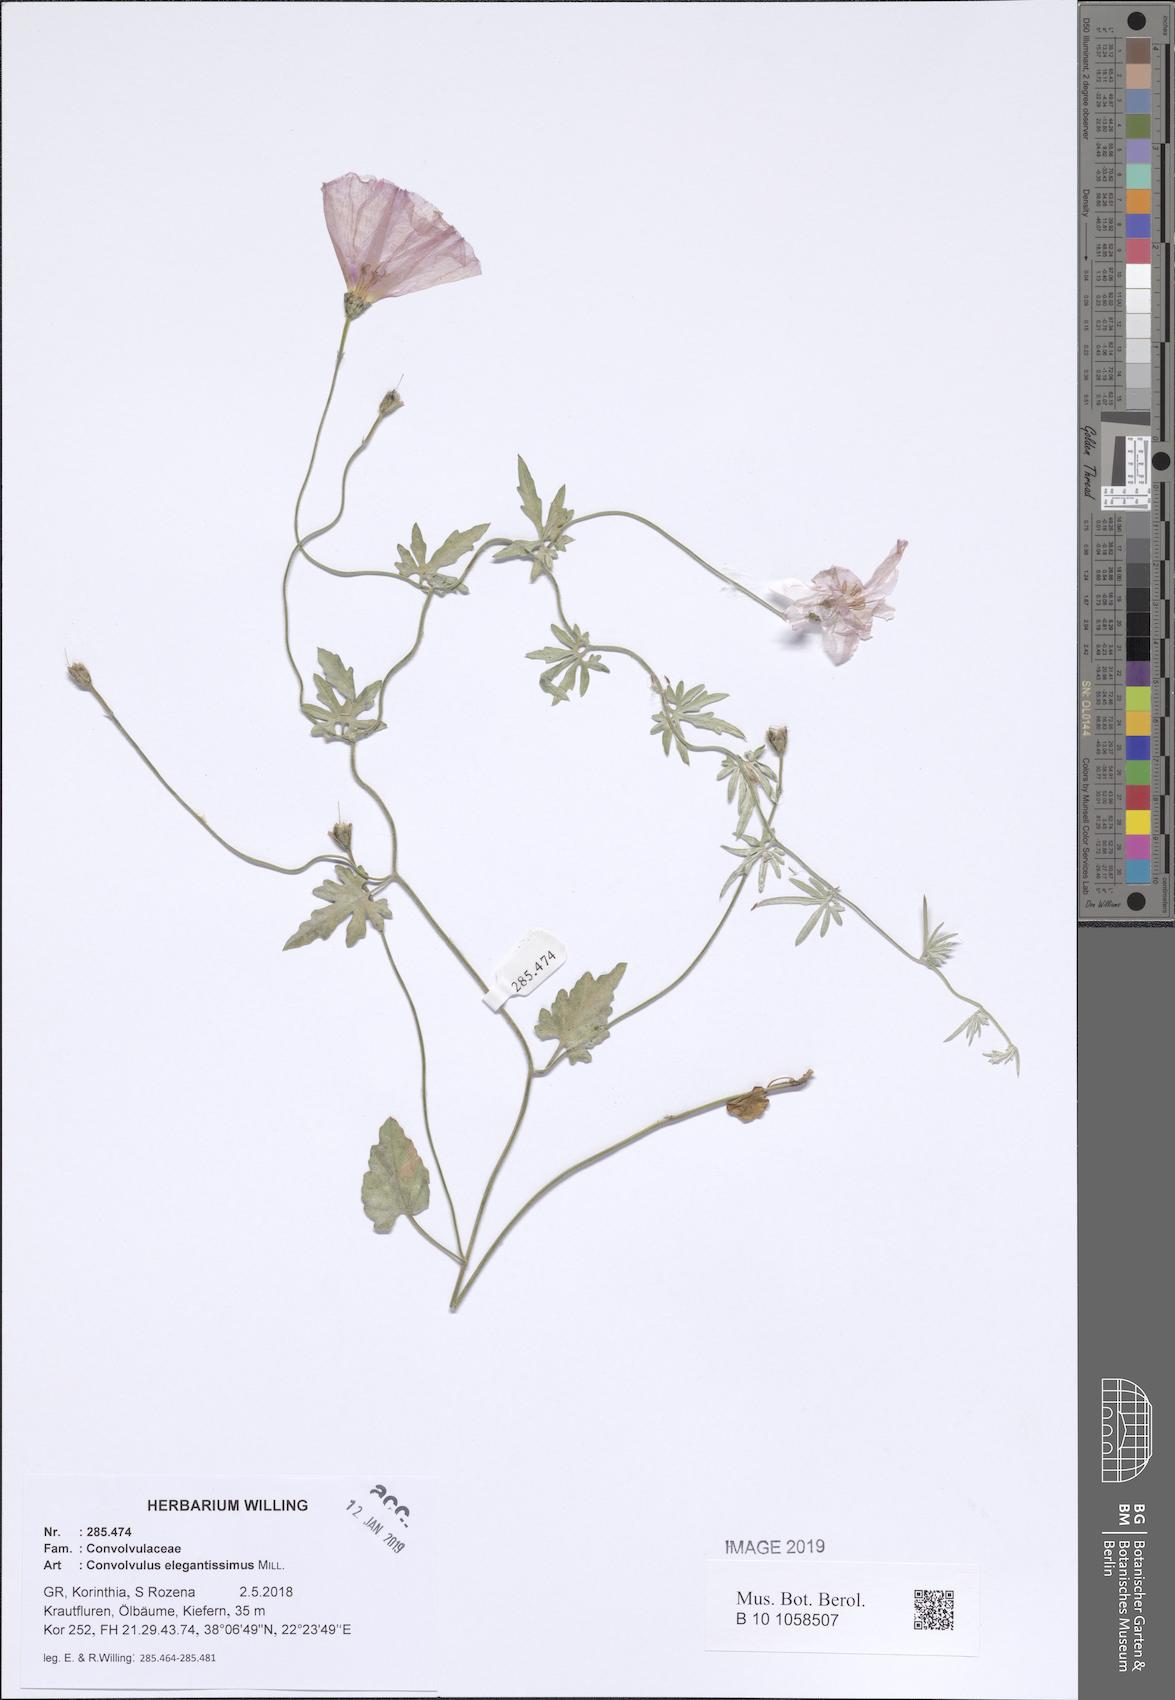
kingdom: Plantae
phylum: Tracheophyta
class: Magnoliopsida
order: Solanales
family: Convolvulaceae
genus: Convolvulus
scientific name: Convolvulus elegantissimus
